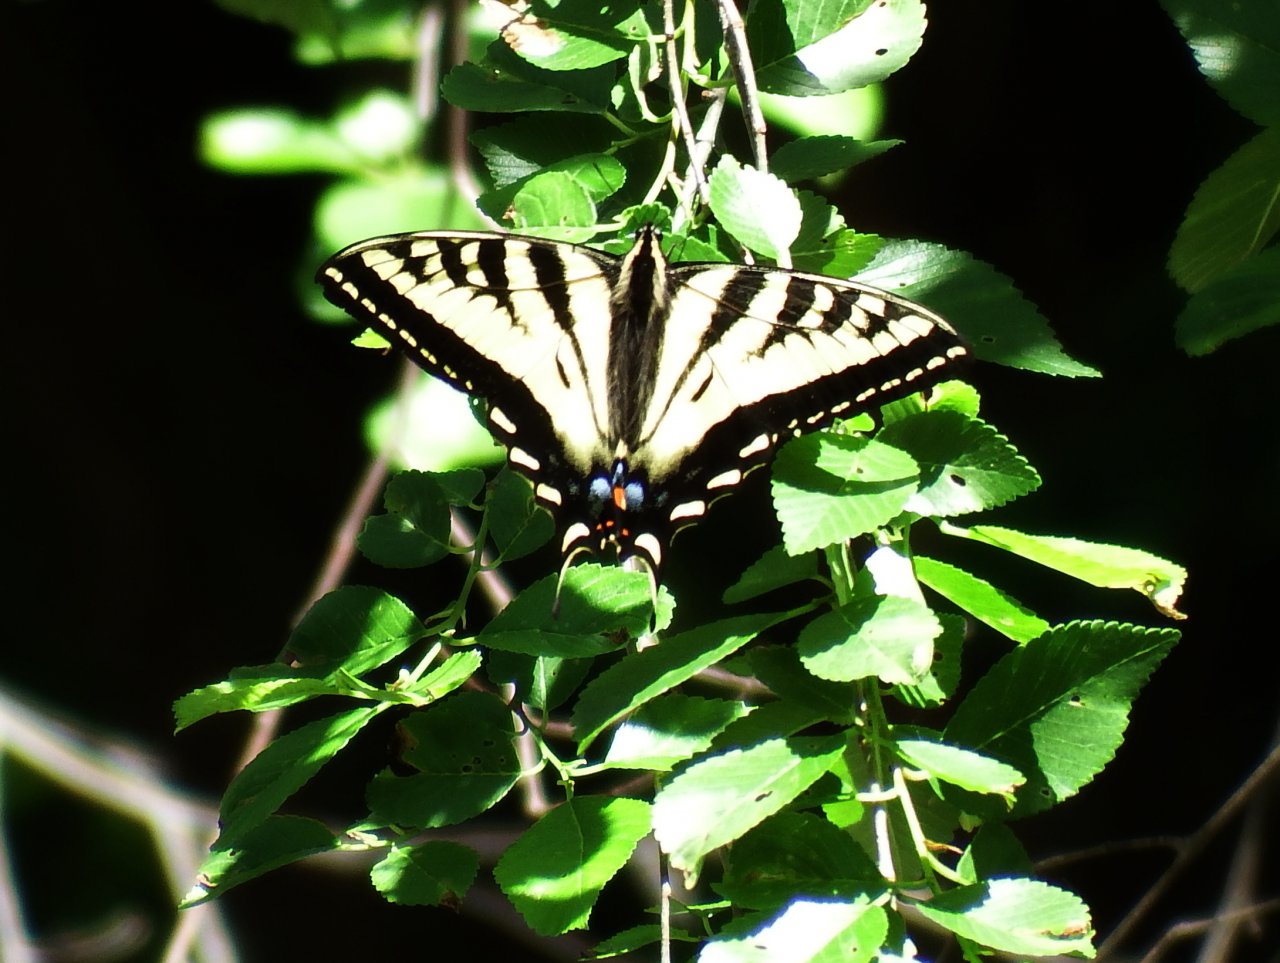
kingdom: Animalia
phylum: Arthropoda
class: Insecta
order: Lepidoptera
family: Papilionidae
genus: Pterourus
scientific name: Pterourus rutulus
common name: Western Tiger Swallowtail
